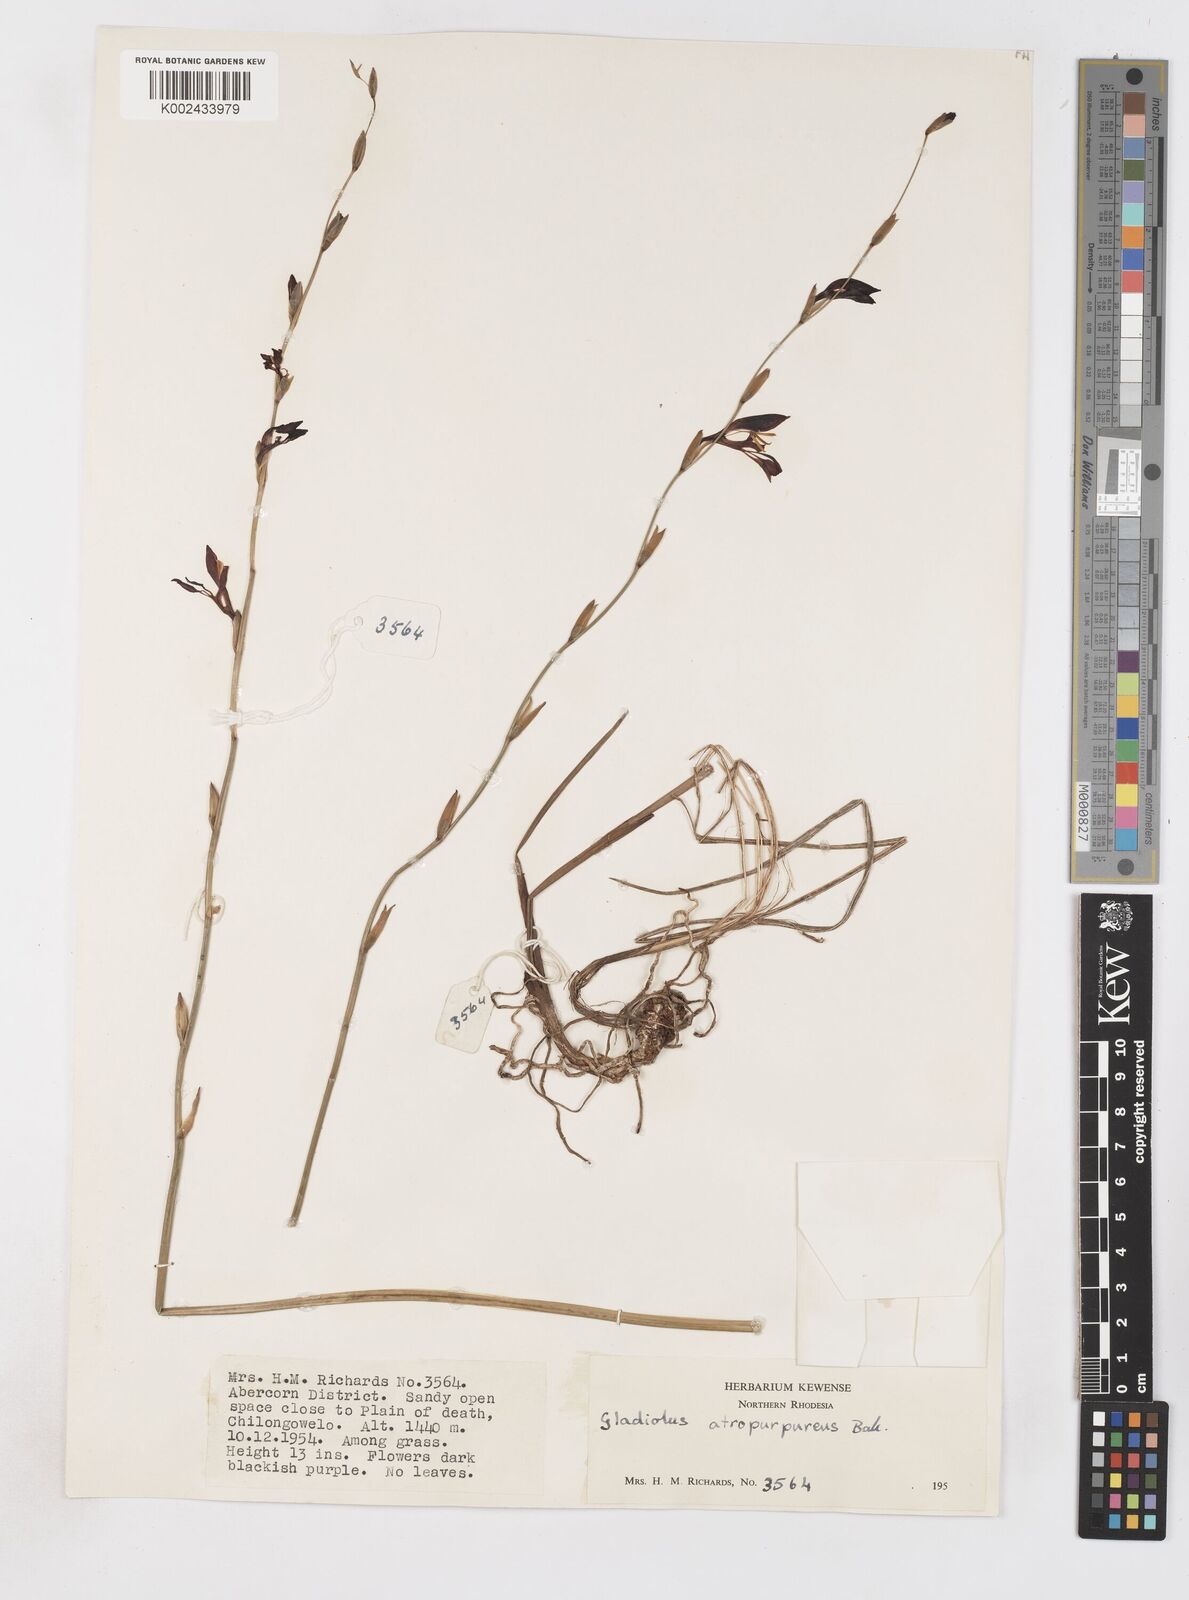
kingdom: Plantae
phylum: Tracheophyta
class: Liliopsida
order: Asparagales
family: Iridaceae
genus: Gladiolus
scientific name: Gladiolus atropurpureus
